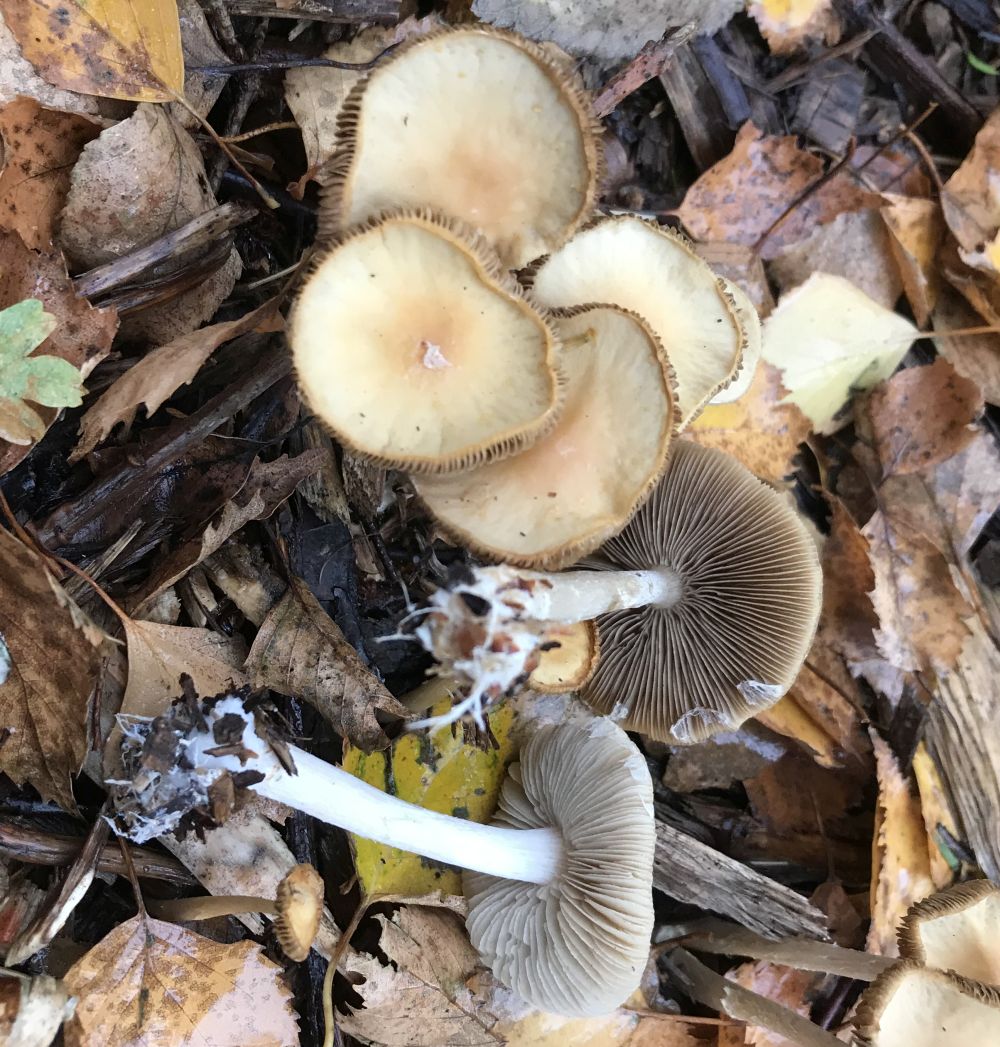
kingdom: Fungi
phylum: Basidiomycota
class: Agaricomycetes
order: Agaricales
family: Strophariaceae
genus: Agrocybe
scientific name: Agrocybe
